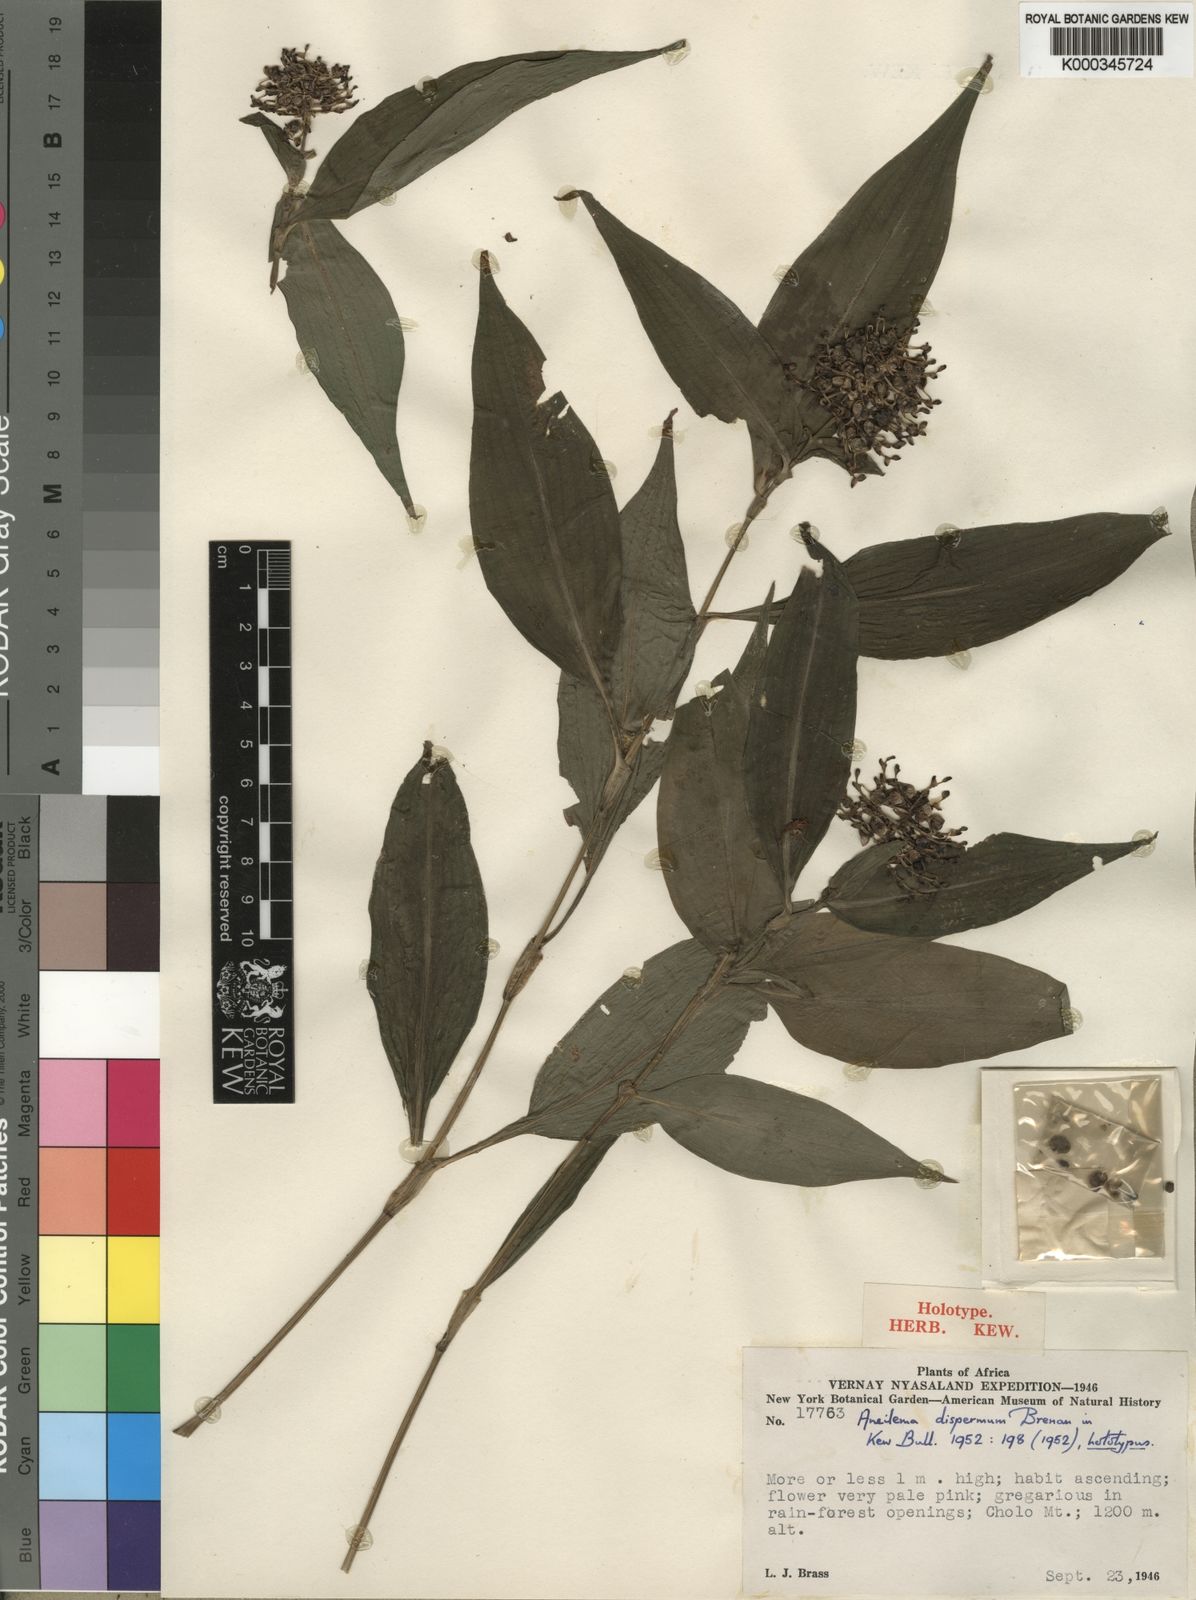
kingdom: Plantae
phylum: Tracheophyta
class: Liliopsida
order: Commelinales
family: Commelinaceae
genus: Aneilema
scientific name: Aneilema dispermum
